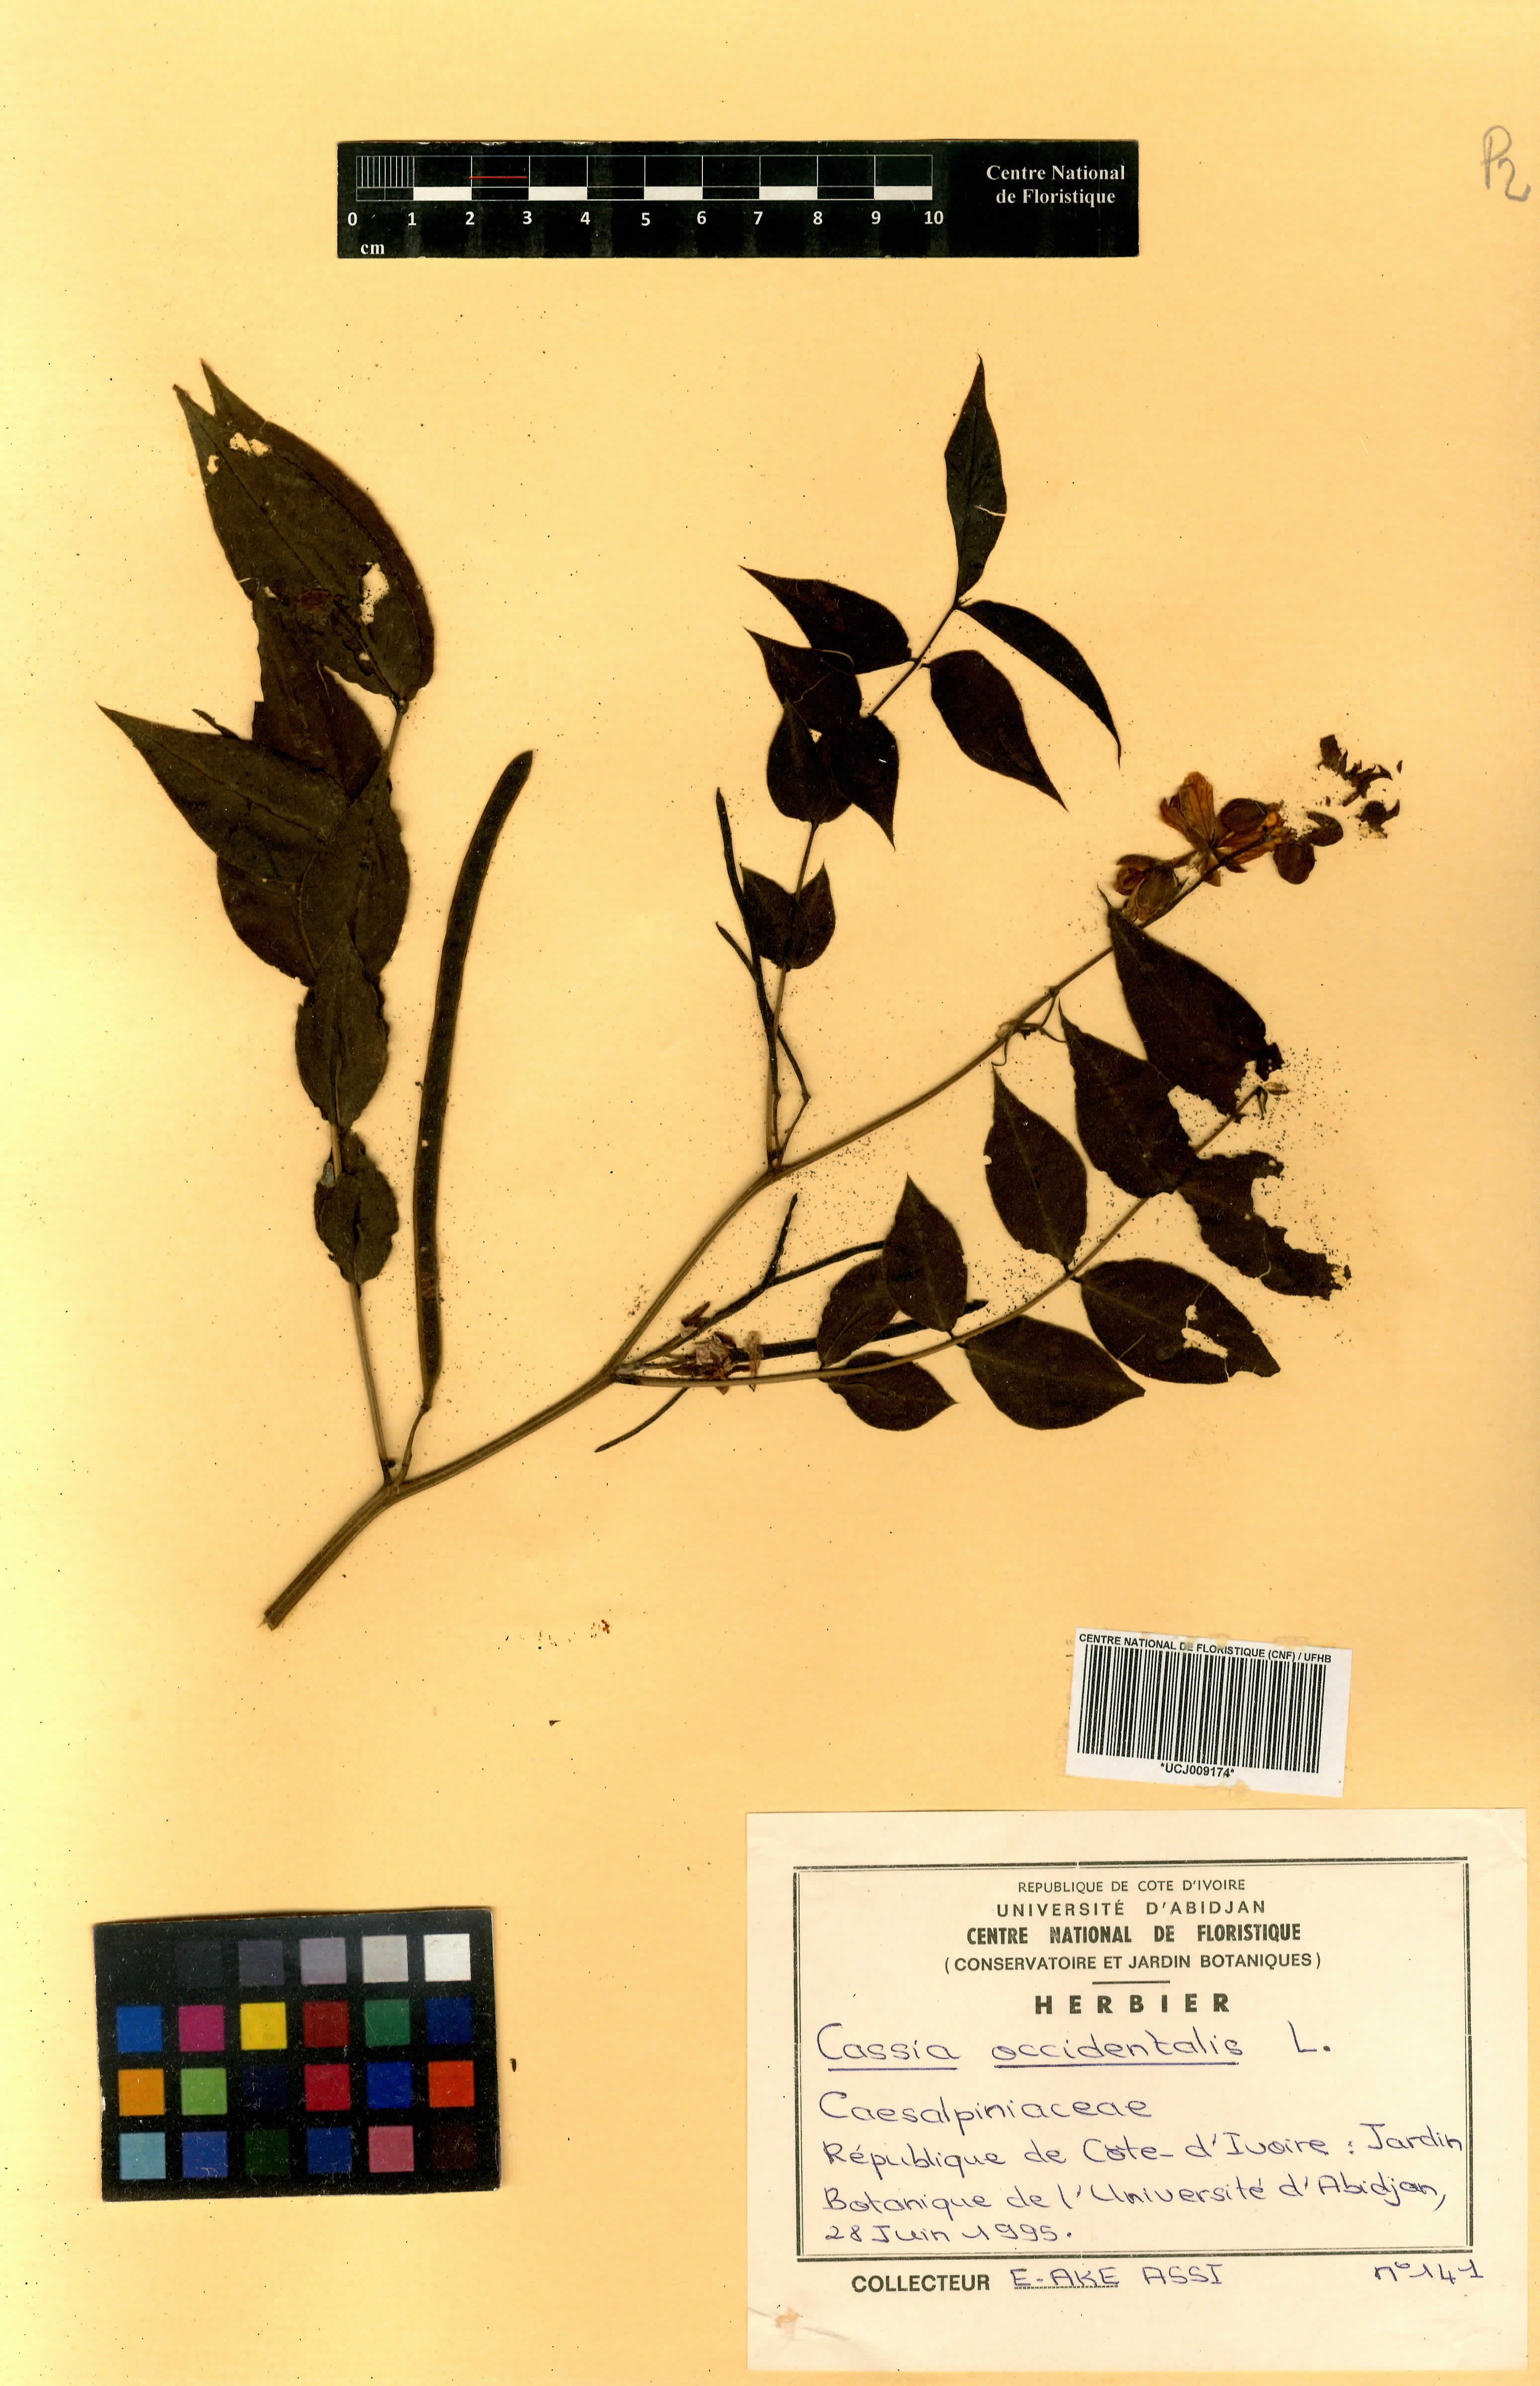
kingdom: Plantae
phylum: Tracheophyta
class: Magnoliopsida
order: Fabales
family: Fabaceae
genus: Senna
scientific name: Senna occidentalis
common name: Septicweed
